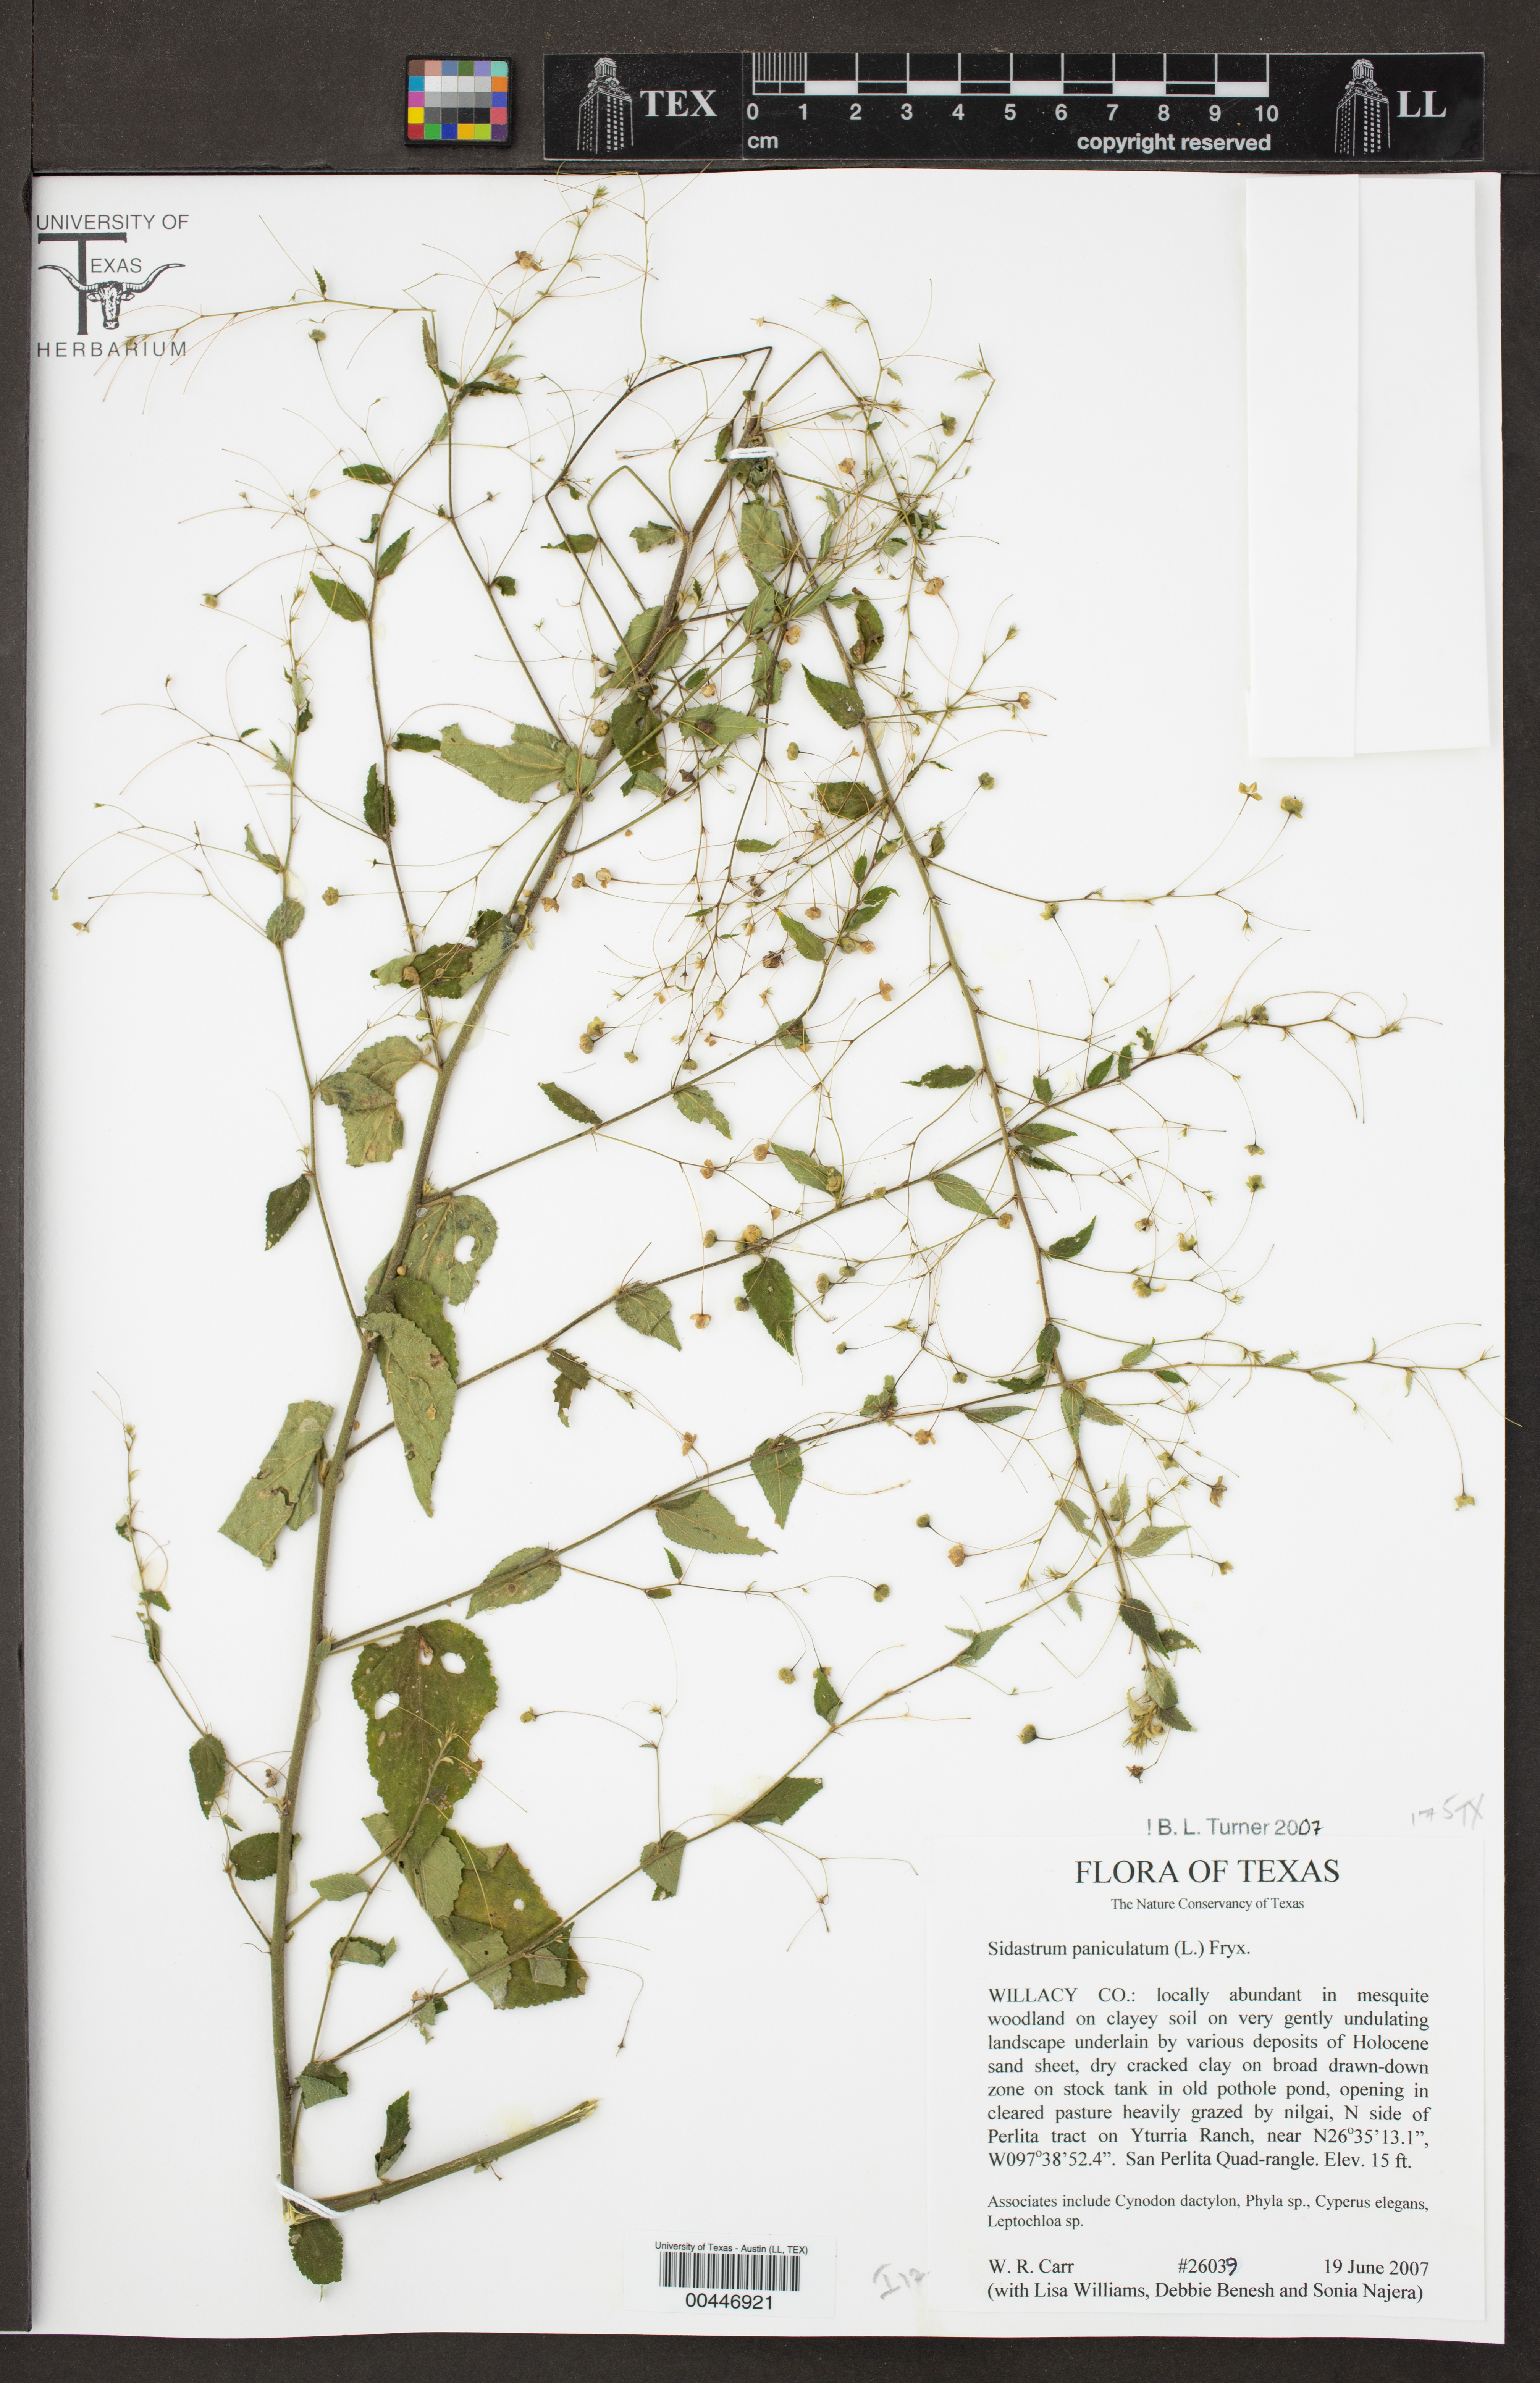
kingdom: Plantae
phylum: Tracheophyta
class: Magnoliopsida
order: Malvales
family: Malvaceae
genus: Sidastrum
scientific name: Sidastrum paniculatum
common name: Panicled sandmallow
